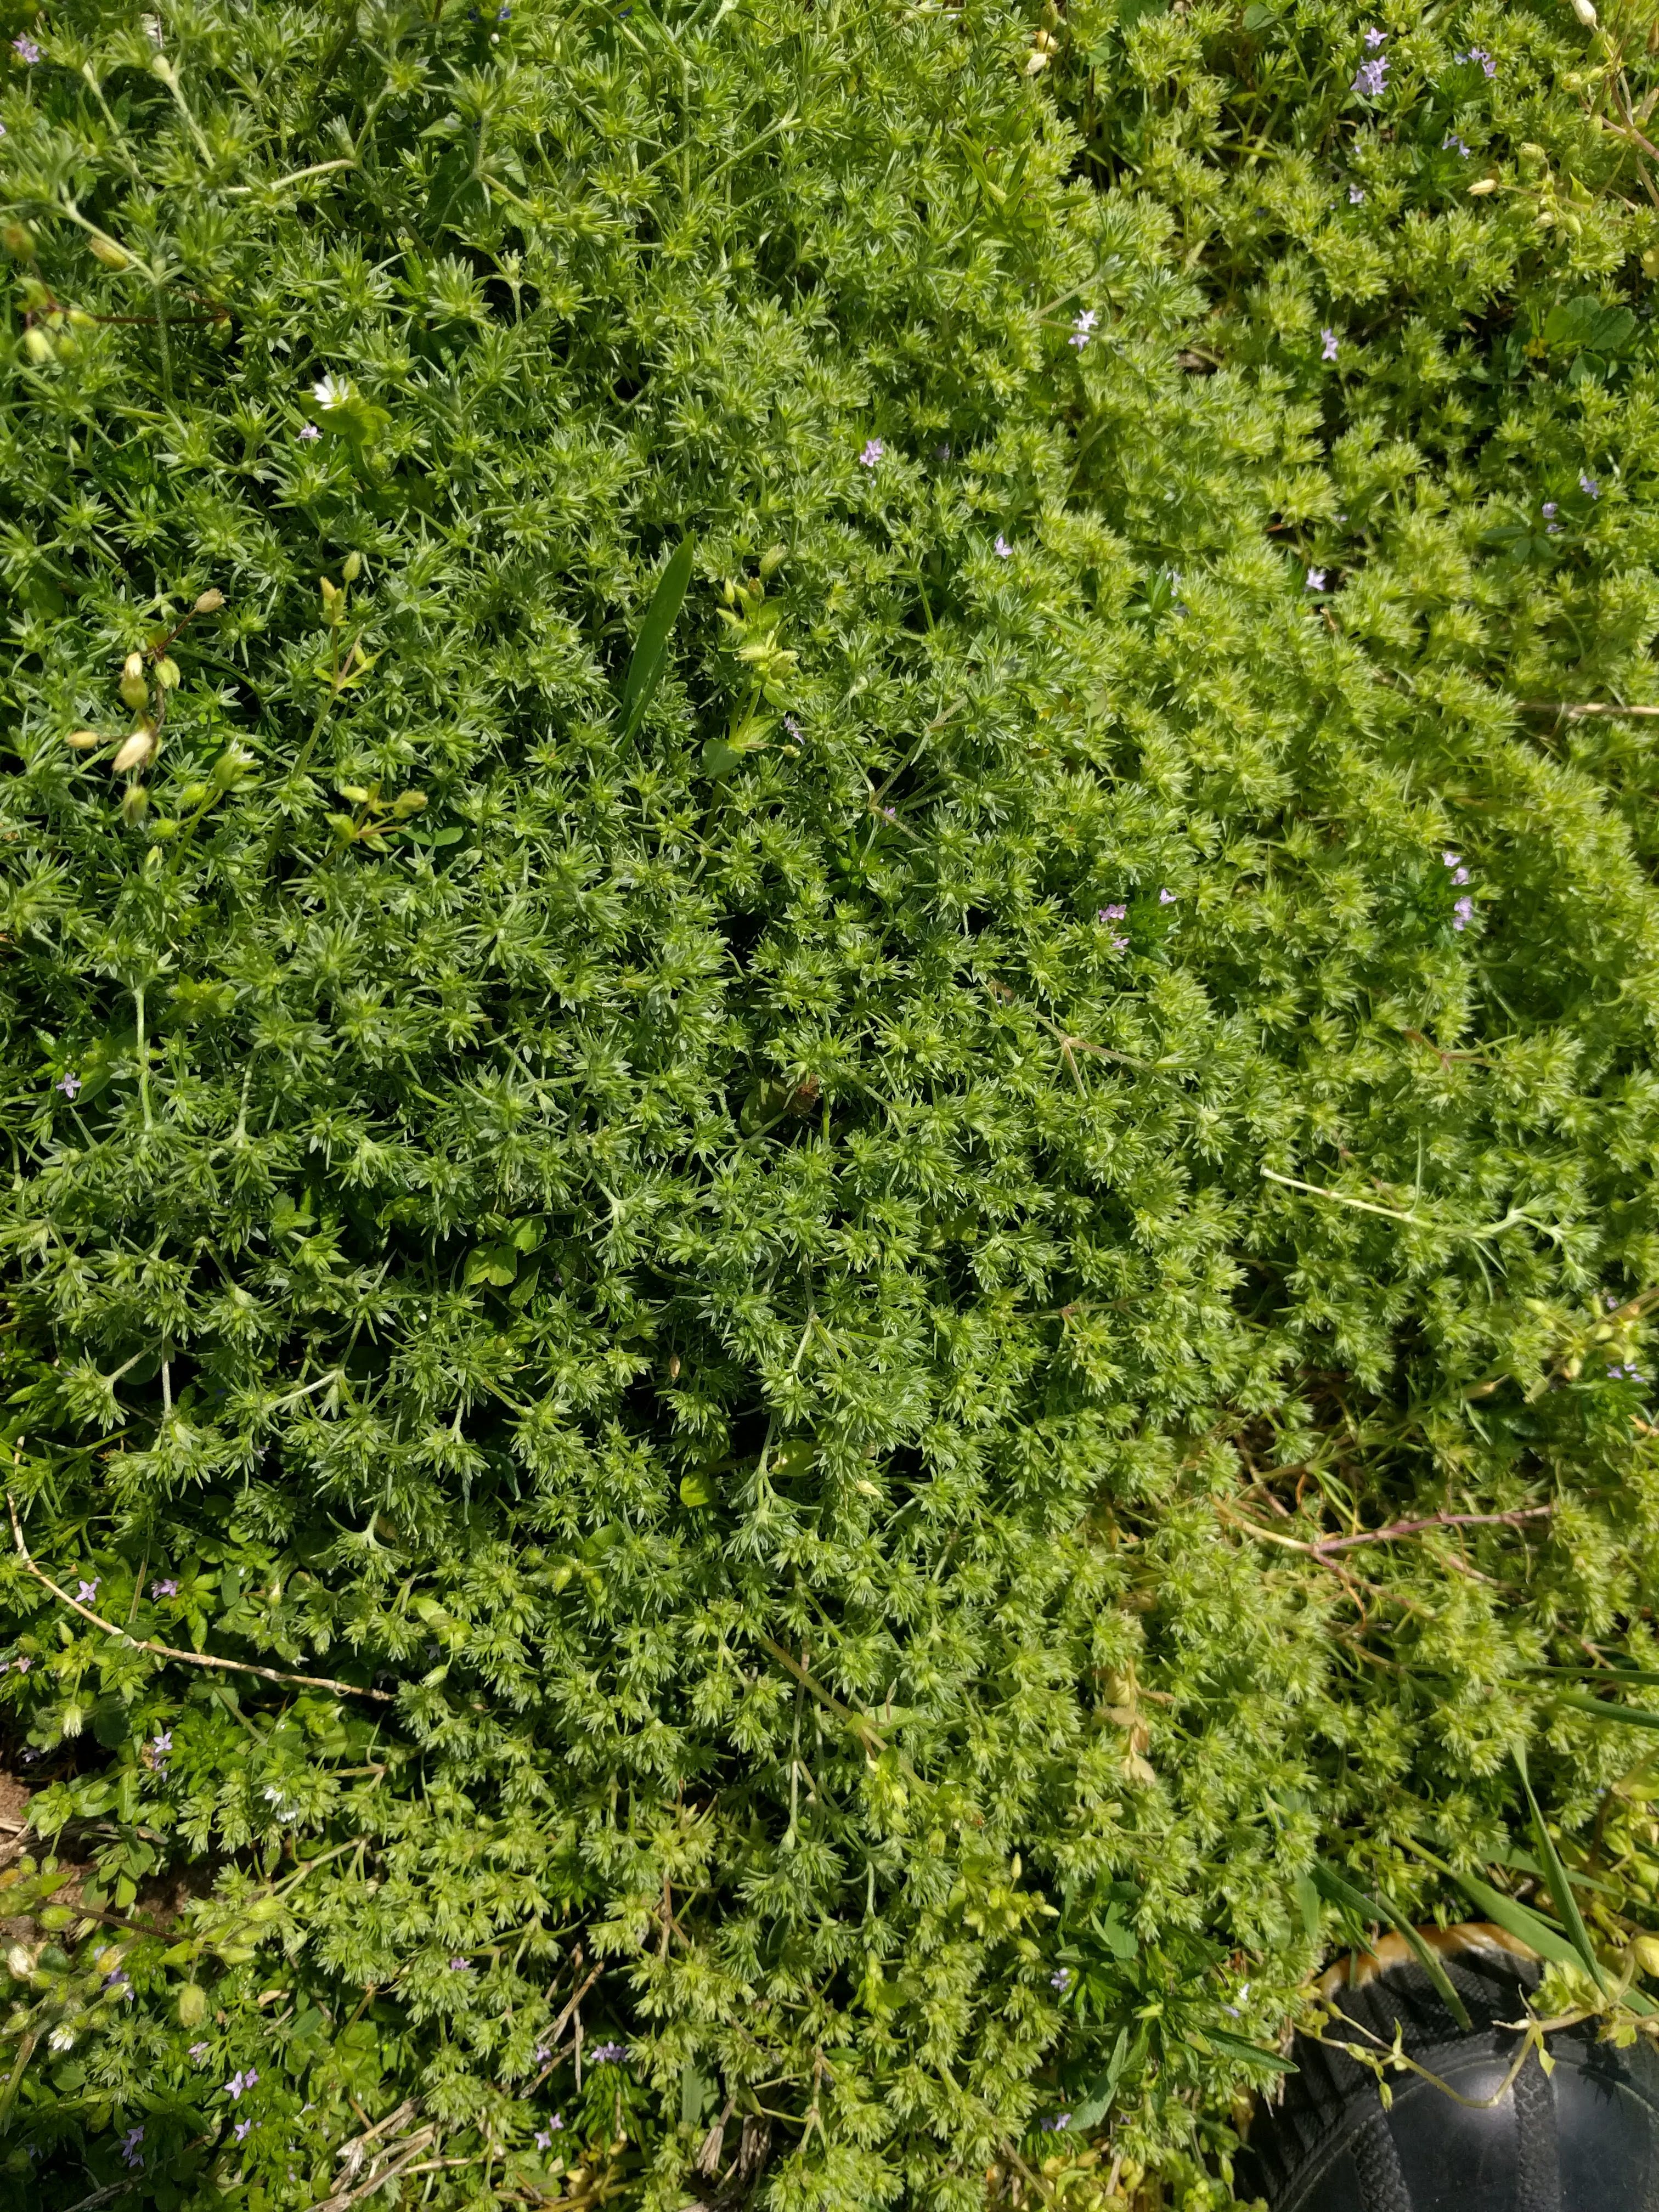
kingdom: Plantae
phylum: Tracheophyta
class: Magnoliopsida
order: Caryophyllales
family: Caryophyllaceae
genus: Scleranthus
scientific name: Scleranthus annuus
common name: Annual knawel
